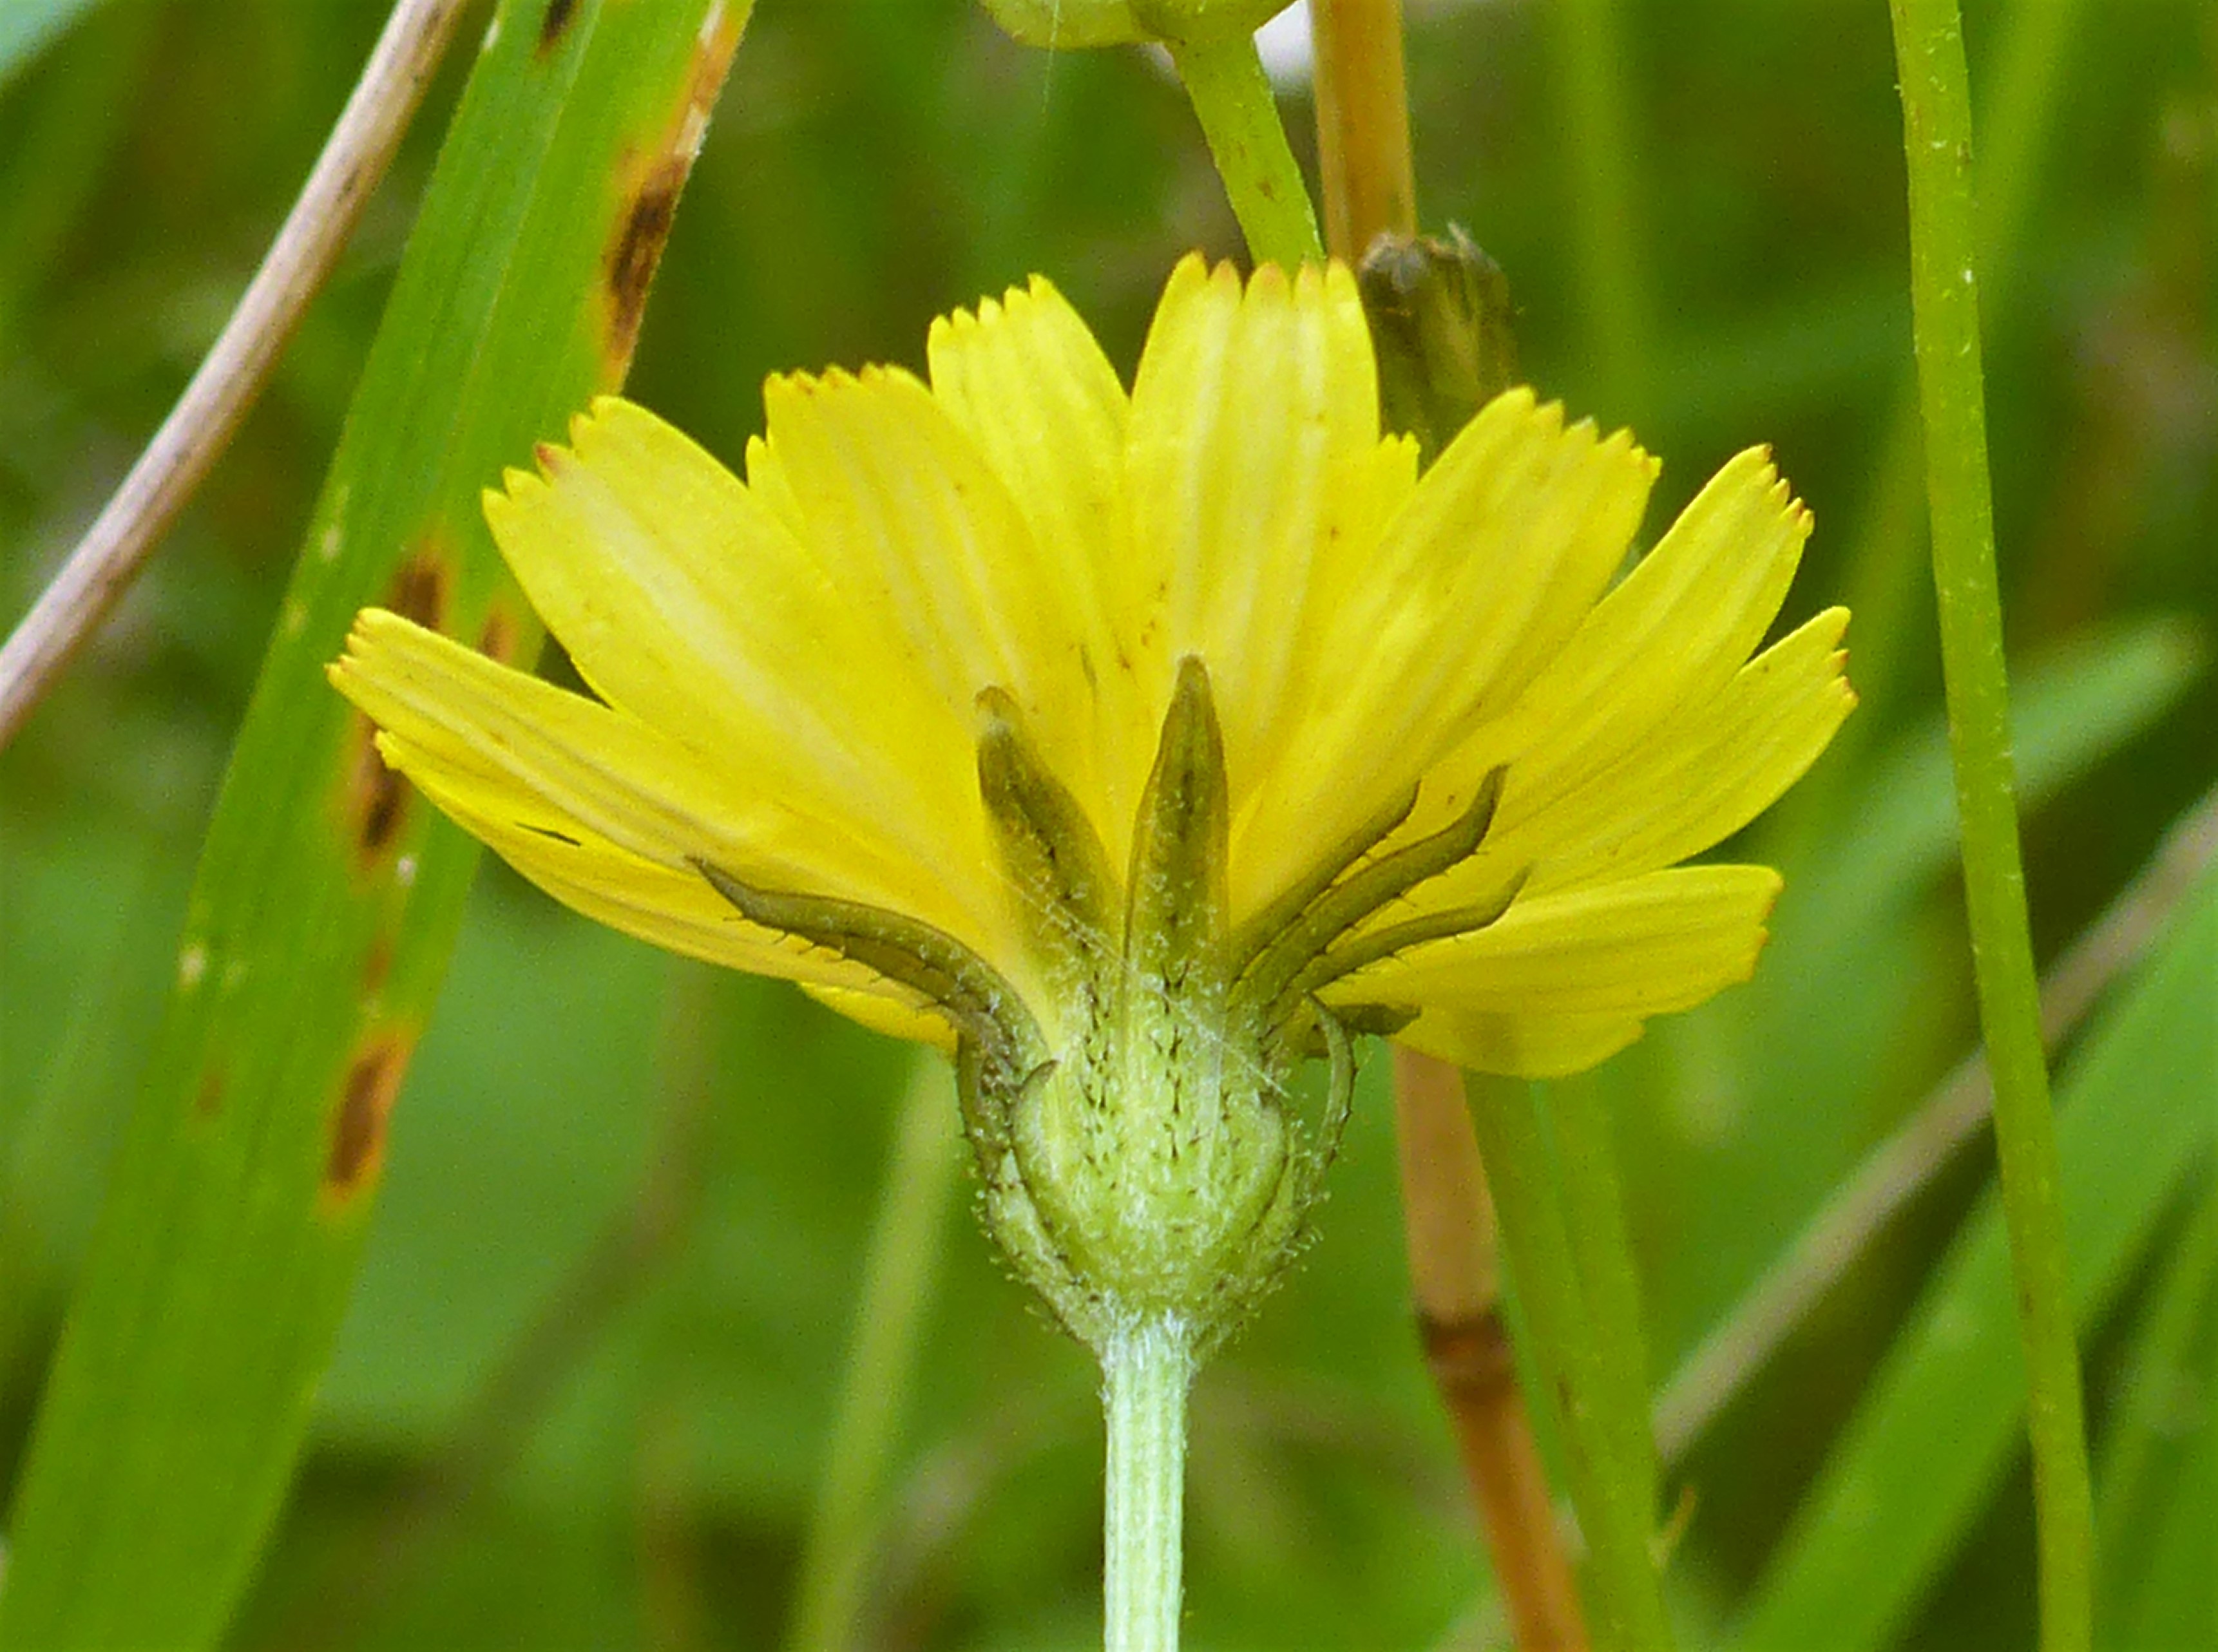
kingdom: Plantae
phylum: Tracheophyta
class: Magnoliopsida
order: Asterales
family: Asteraceae
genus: Crepis
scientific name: Crepis capillaris
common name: Grøn høgeskæg
